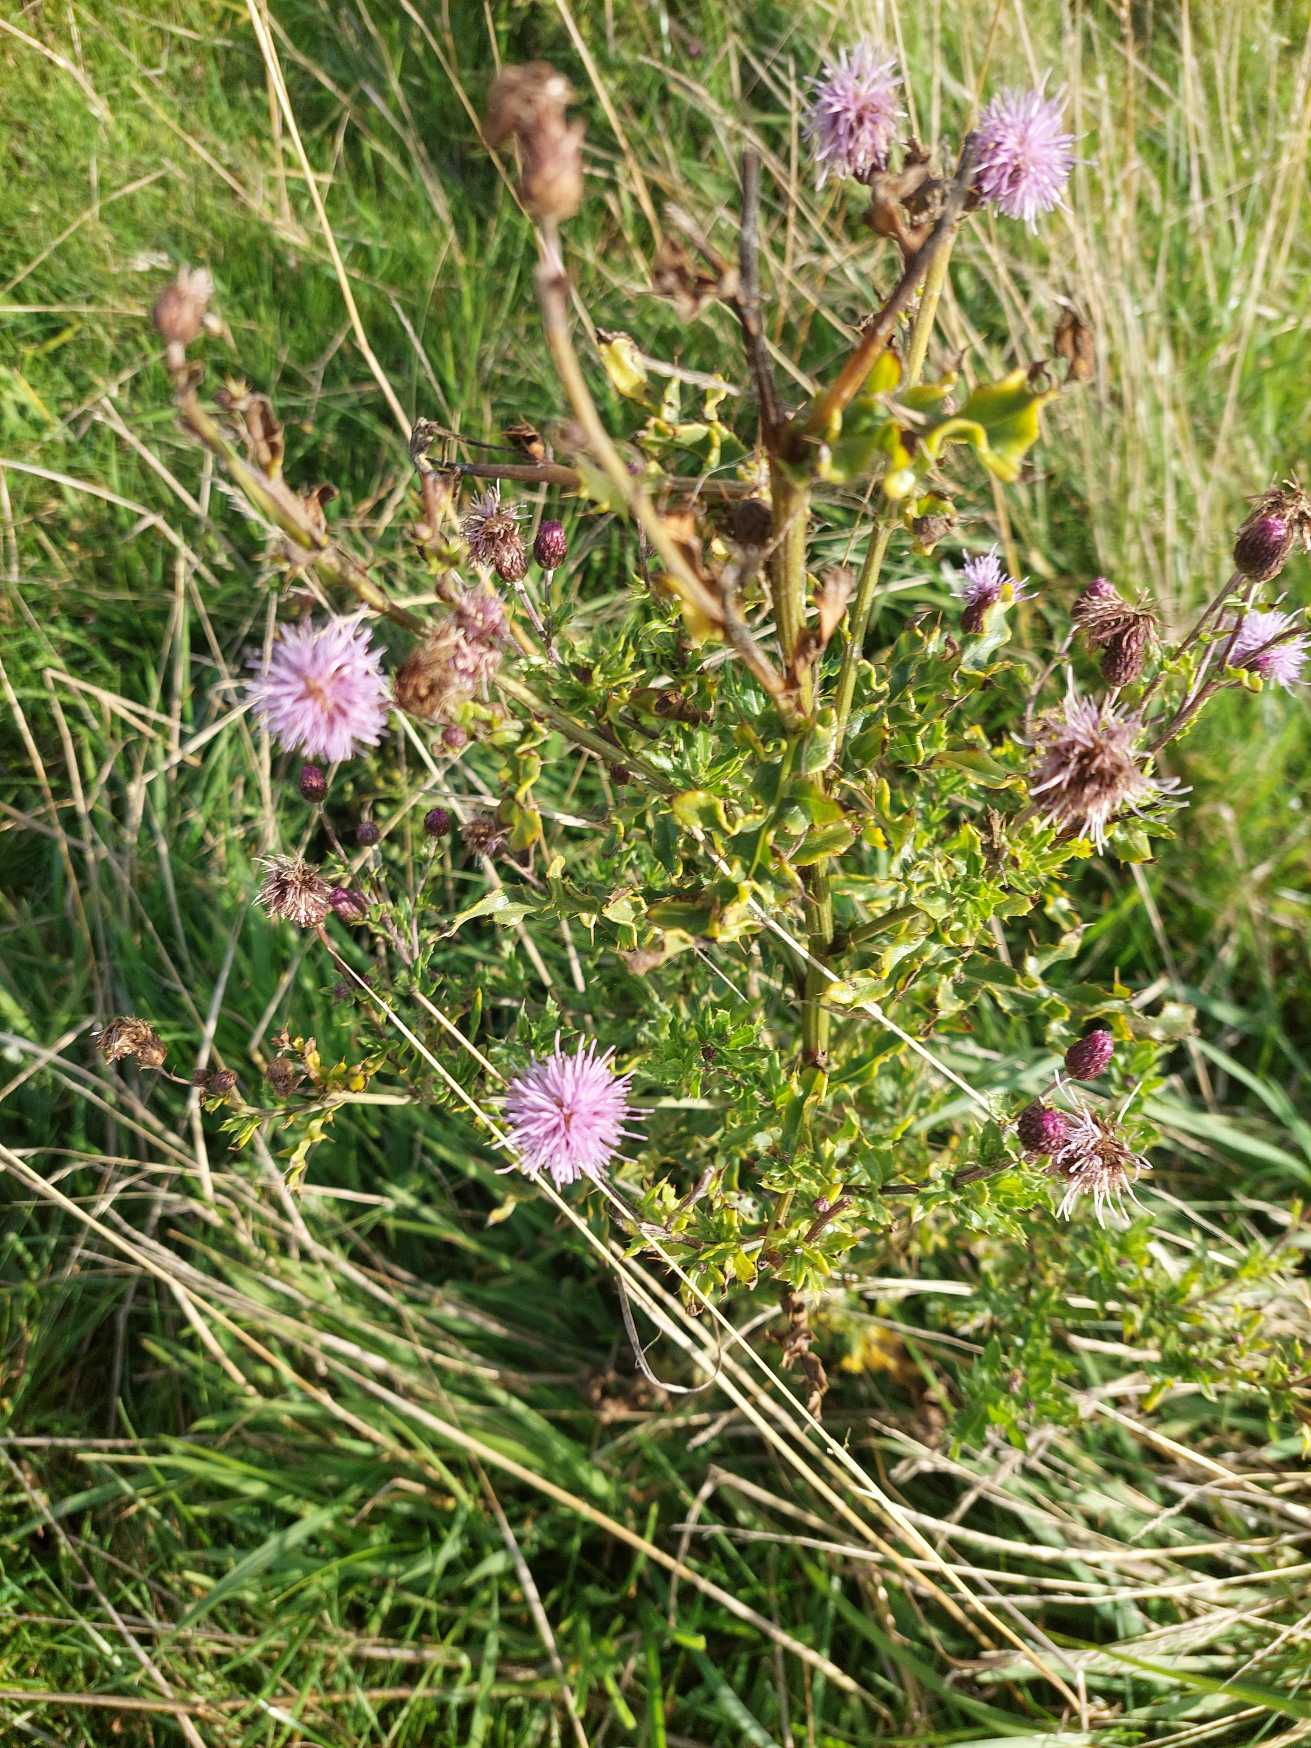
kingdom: Plantae
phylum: Tracheophyta
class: Magnoliopsida
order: Asterales
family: Asteraceae
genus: Cirsium
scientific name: Cirsium arvense
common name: Ager-tidsel
